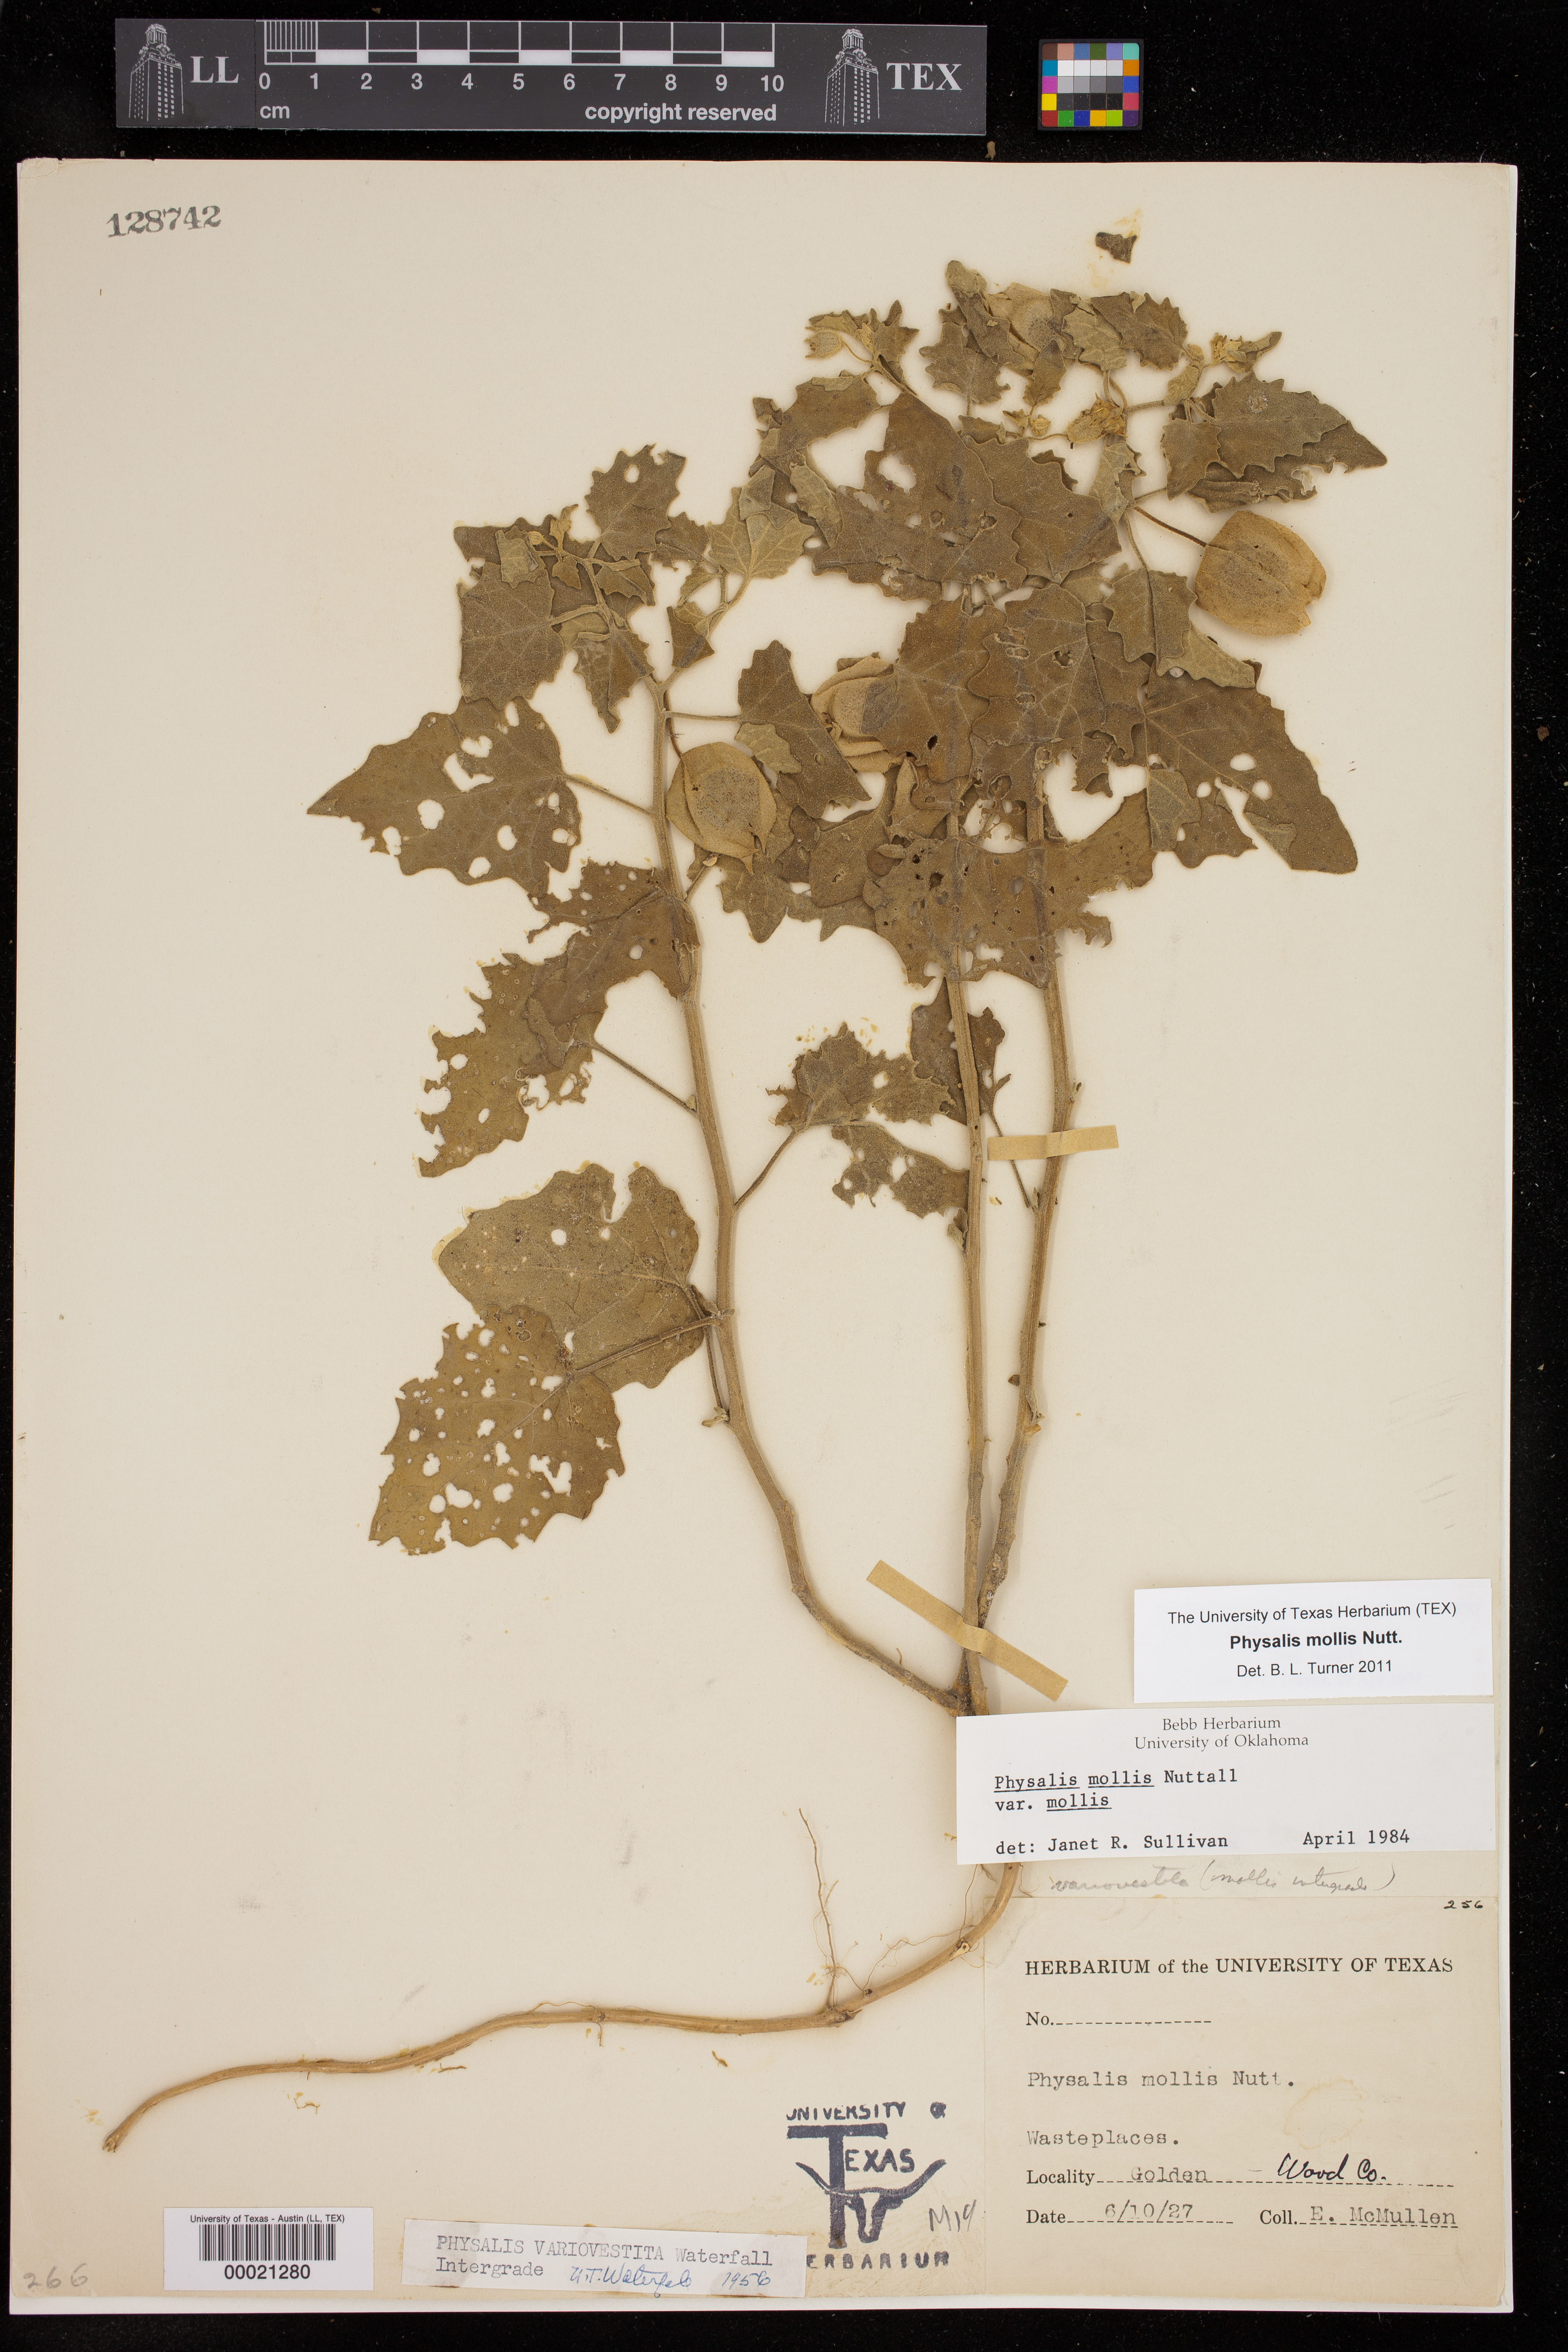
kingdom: Plantae
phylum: Tracheophyta
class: Magnoliopsida
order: Solanales
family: Solanaceae
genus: Physalis
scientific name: Physalis mollis
